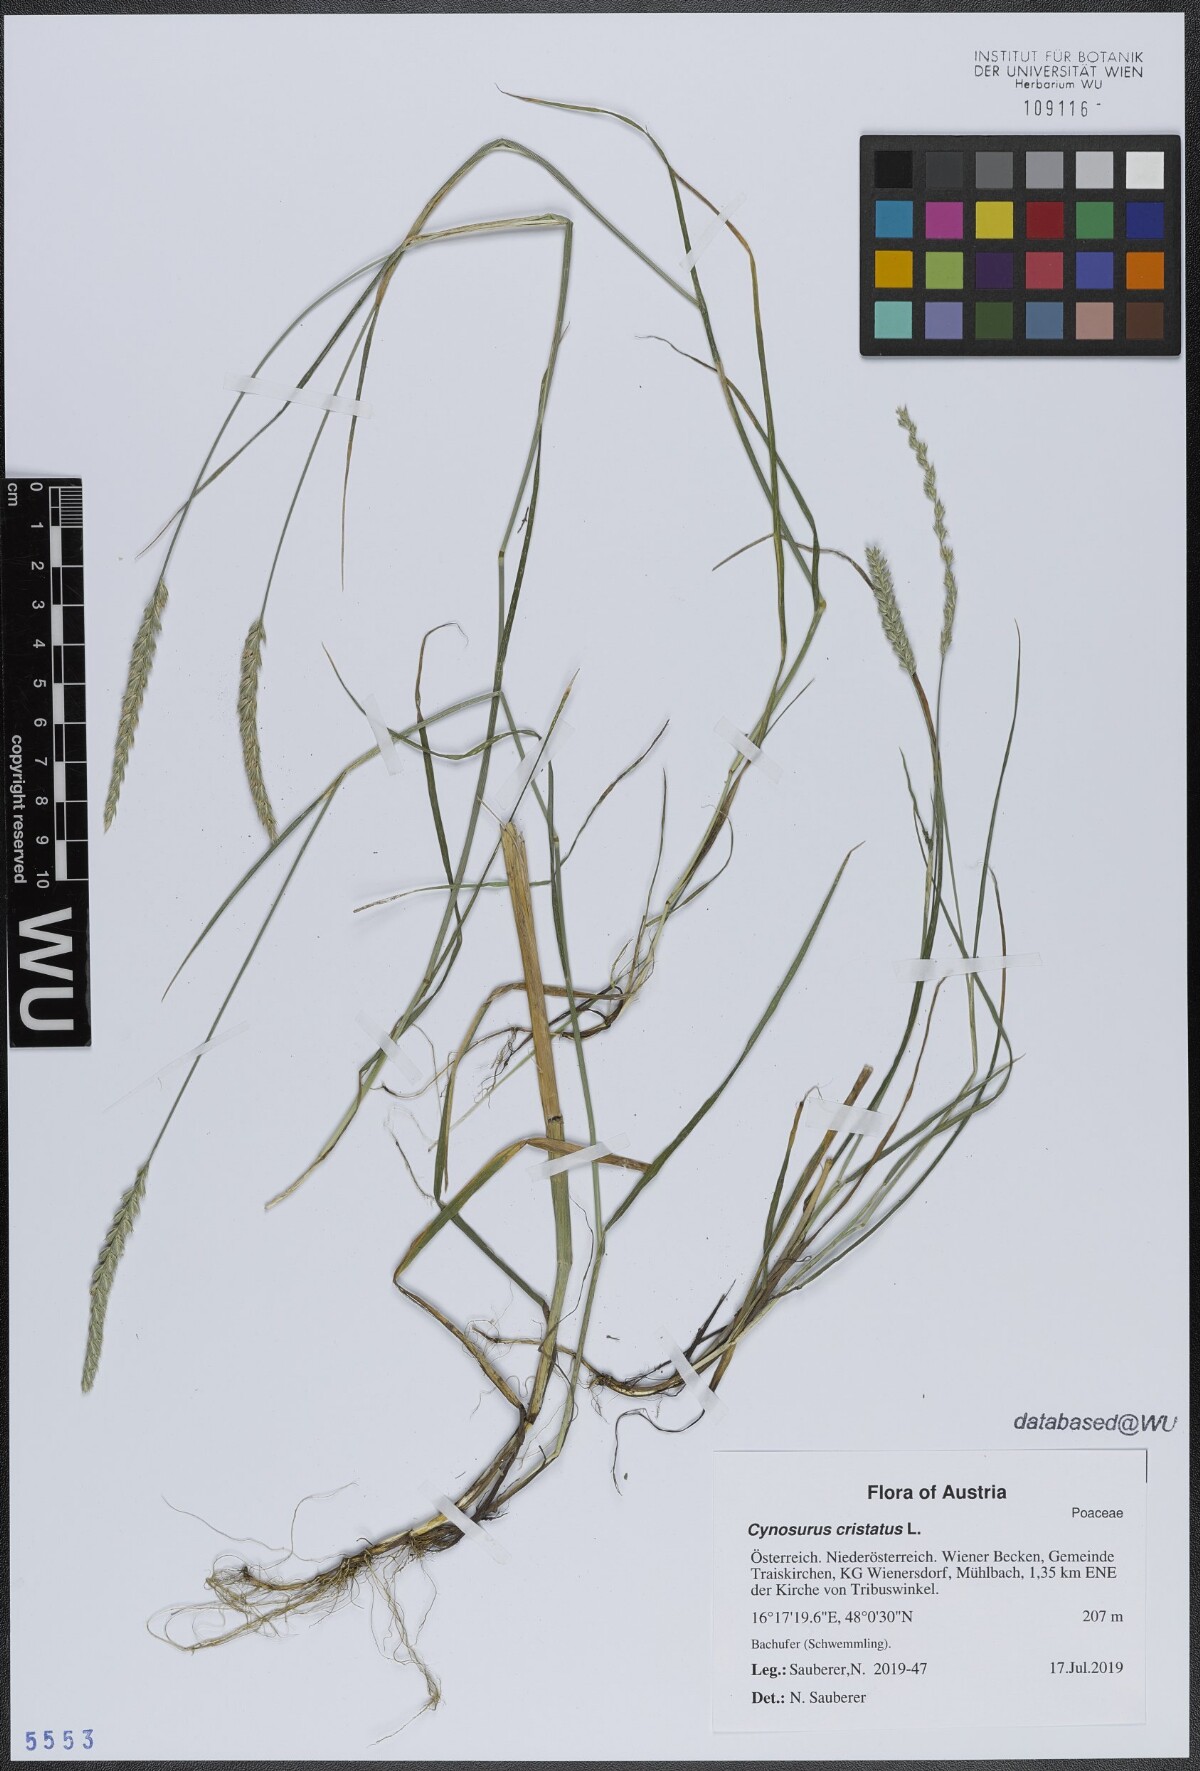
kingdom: Plantae
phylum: Tracheophyta
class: Liliopsida
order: Poales
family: Poaceae
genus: Cynosurus
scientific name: Cynosurus cristatus
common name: Crested dog's-tail
